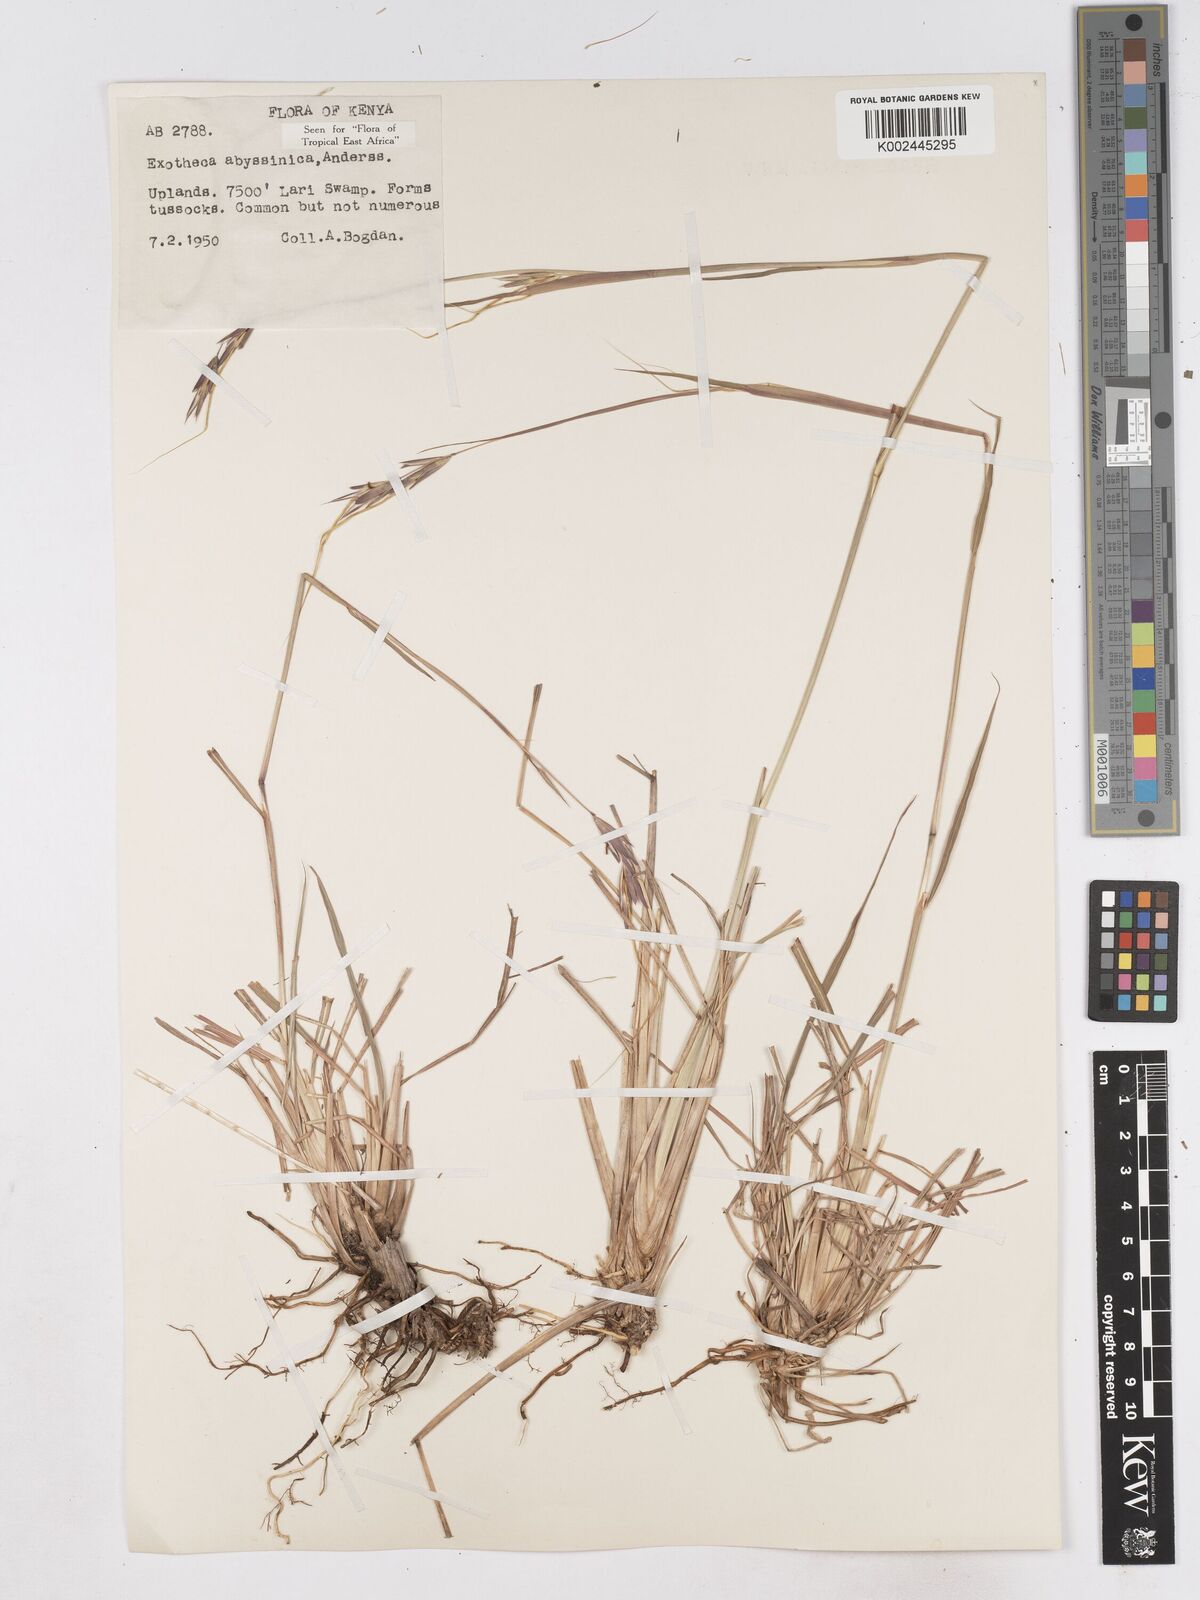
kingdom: Plantae
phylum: Tracheophyta
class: Liliopsida
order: Poales
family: Poaceae
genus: Exotheca
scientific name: Exotheca abyssinica
